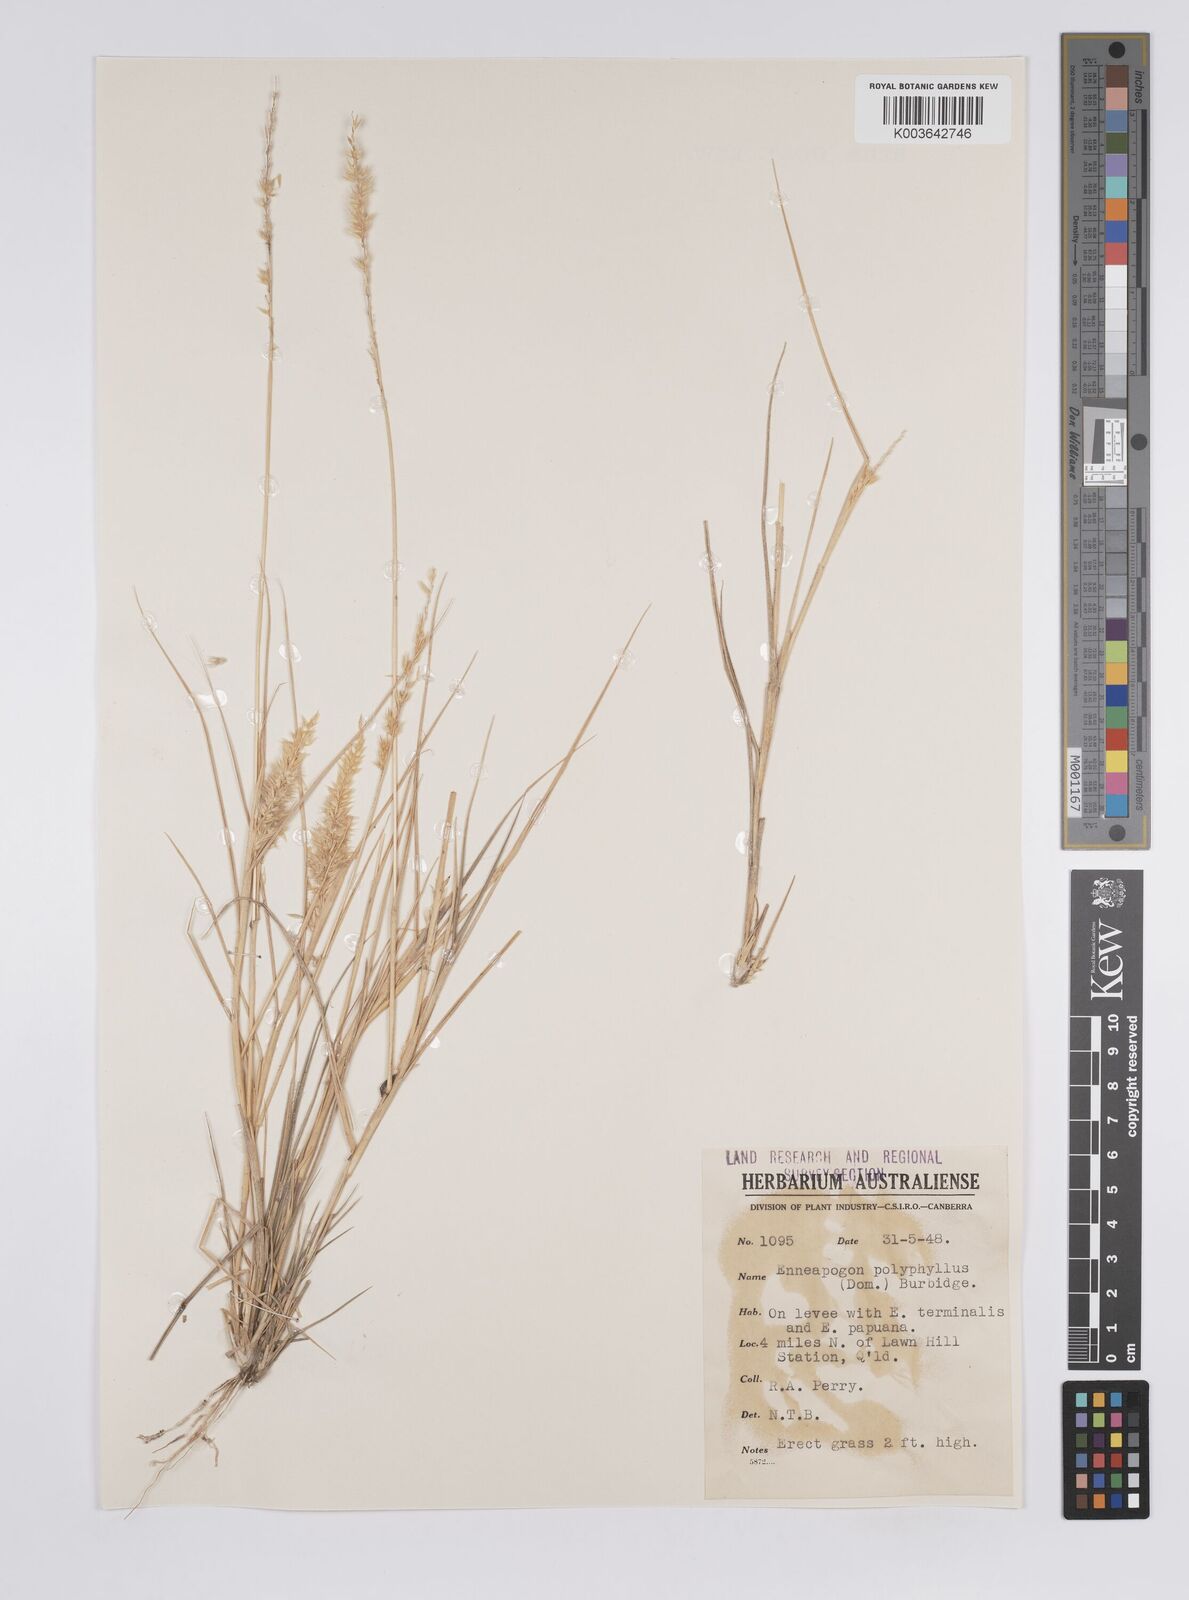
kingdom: Plantae
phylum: Tracheophyta
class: Liliopsida
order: Poales
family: Poaceae
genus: Enneapogon
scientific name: Enneapogon polyphyllus
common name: Leafy nineawn
